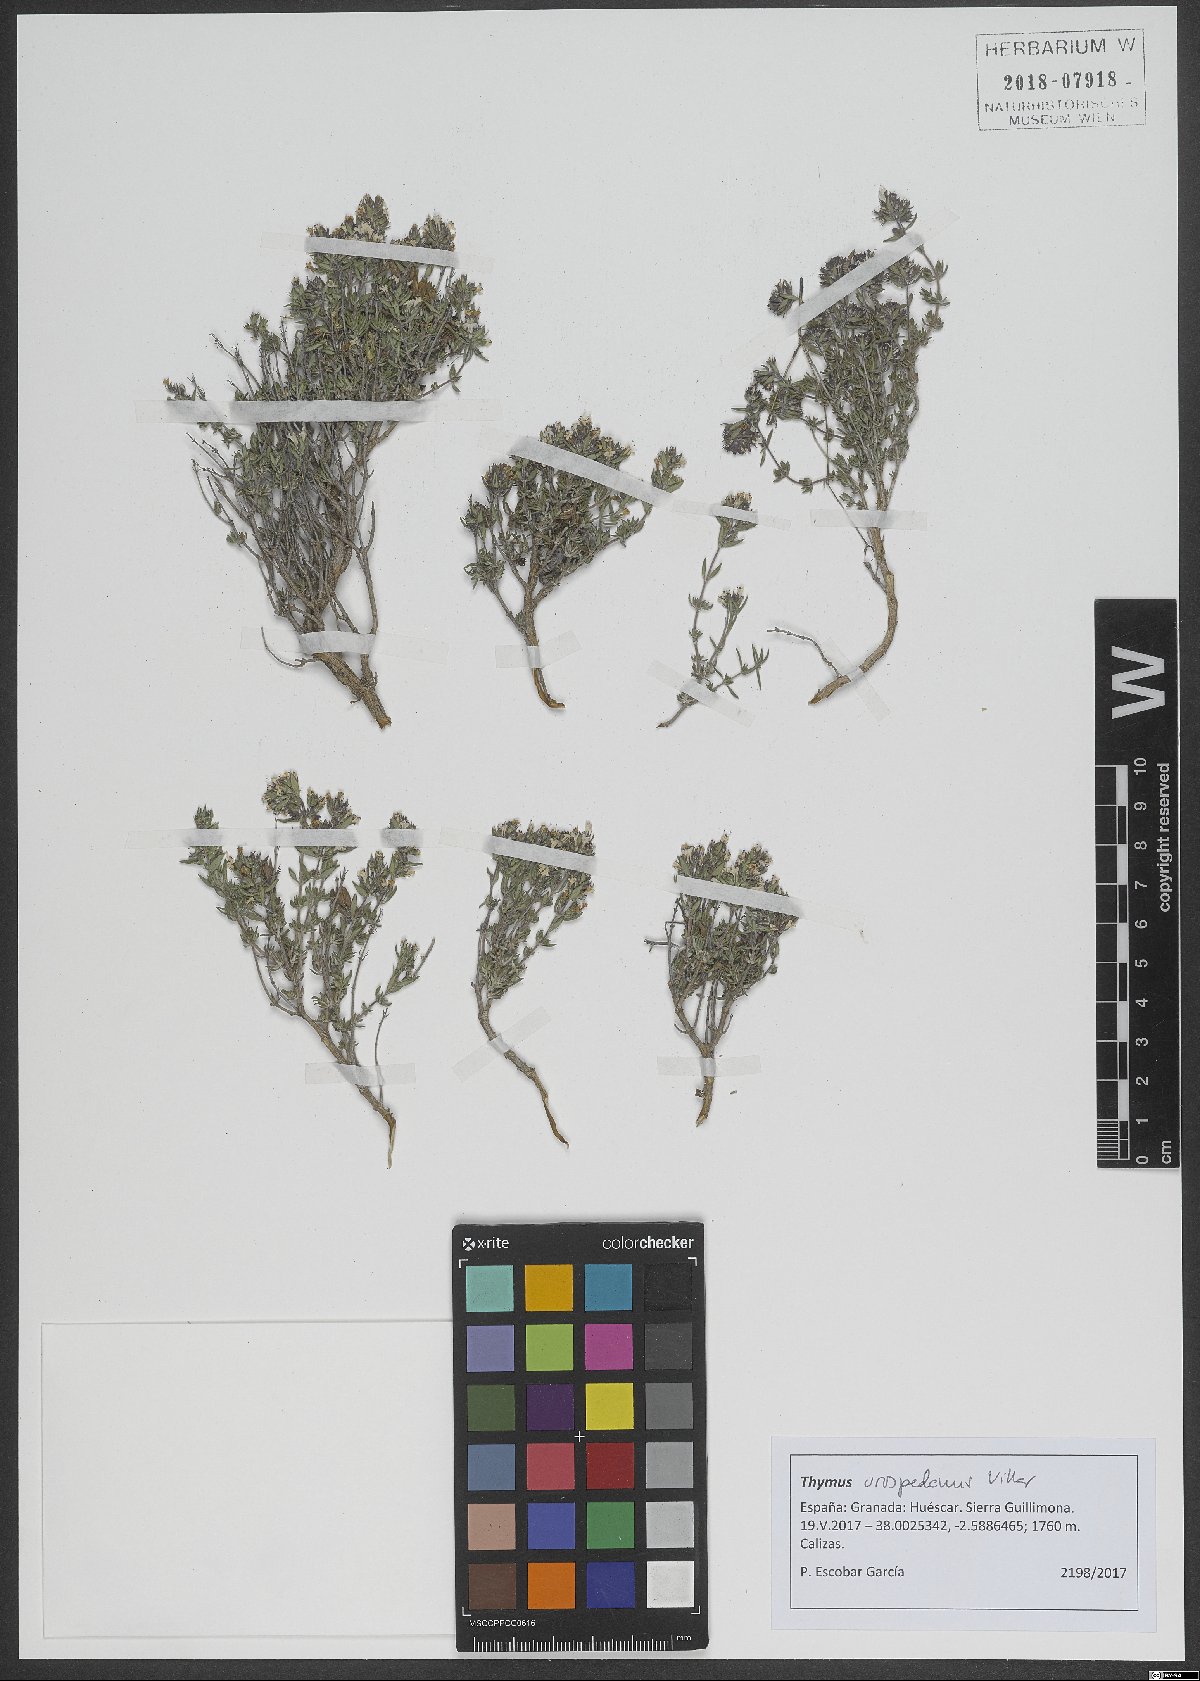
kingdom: Plantae
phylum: Tracheophyta
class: Magnoliopsida
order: Lamiales
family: Lamiaceae
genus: Thymus
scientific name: Thymus orospedanus
